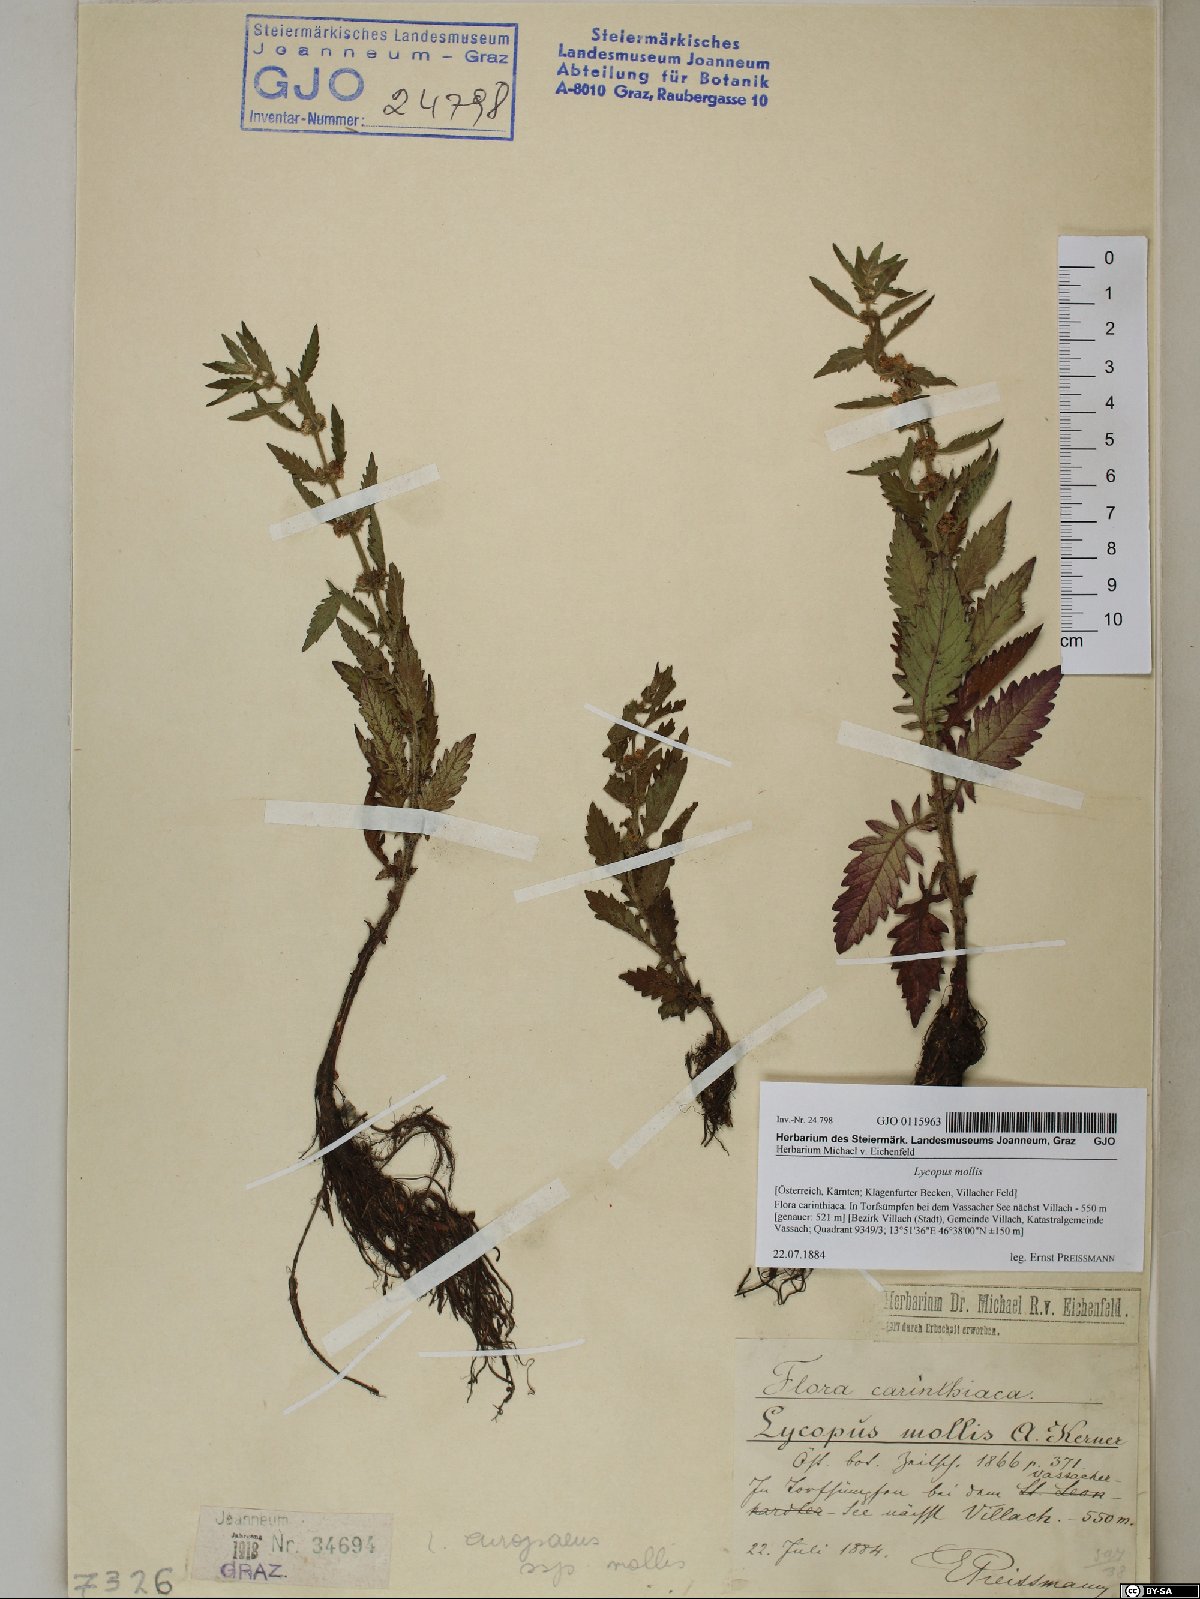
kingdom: Plantae
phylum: Tracheophyta
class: Magnoliopsida
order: Lamiales
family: Lamiaceae
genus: Lycopus
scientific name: Lycopus europaeus
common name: European bugleweed
